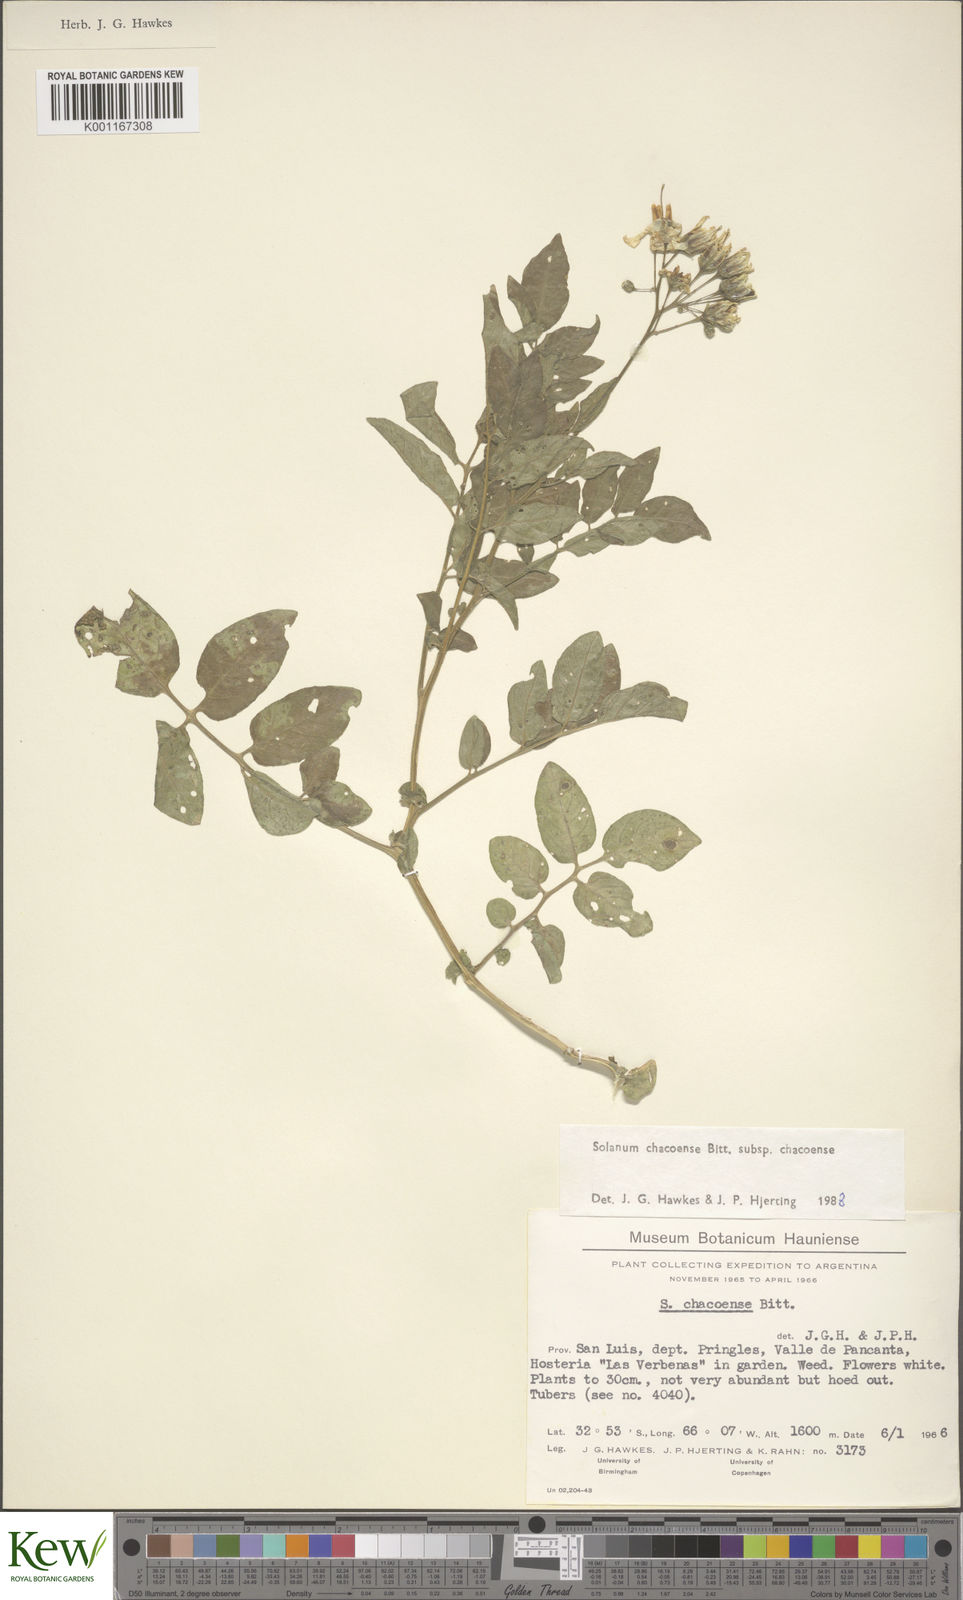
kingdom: Plantae
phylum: Tracheophyta
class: Magnoliopsida
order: Solanales
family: Solanaceae
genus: Solanum
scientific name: Solanum chacoense
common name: Chaco potato
